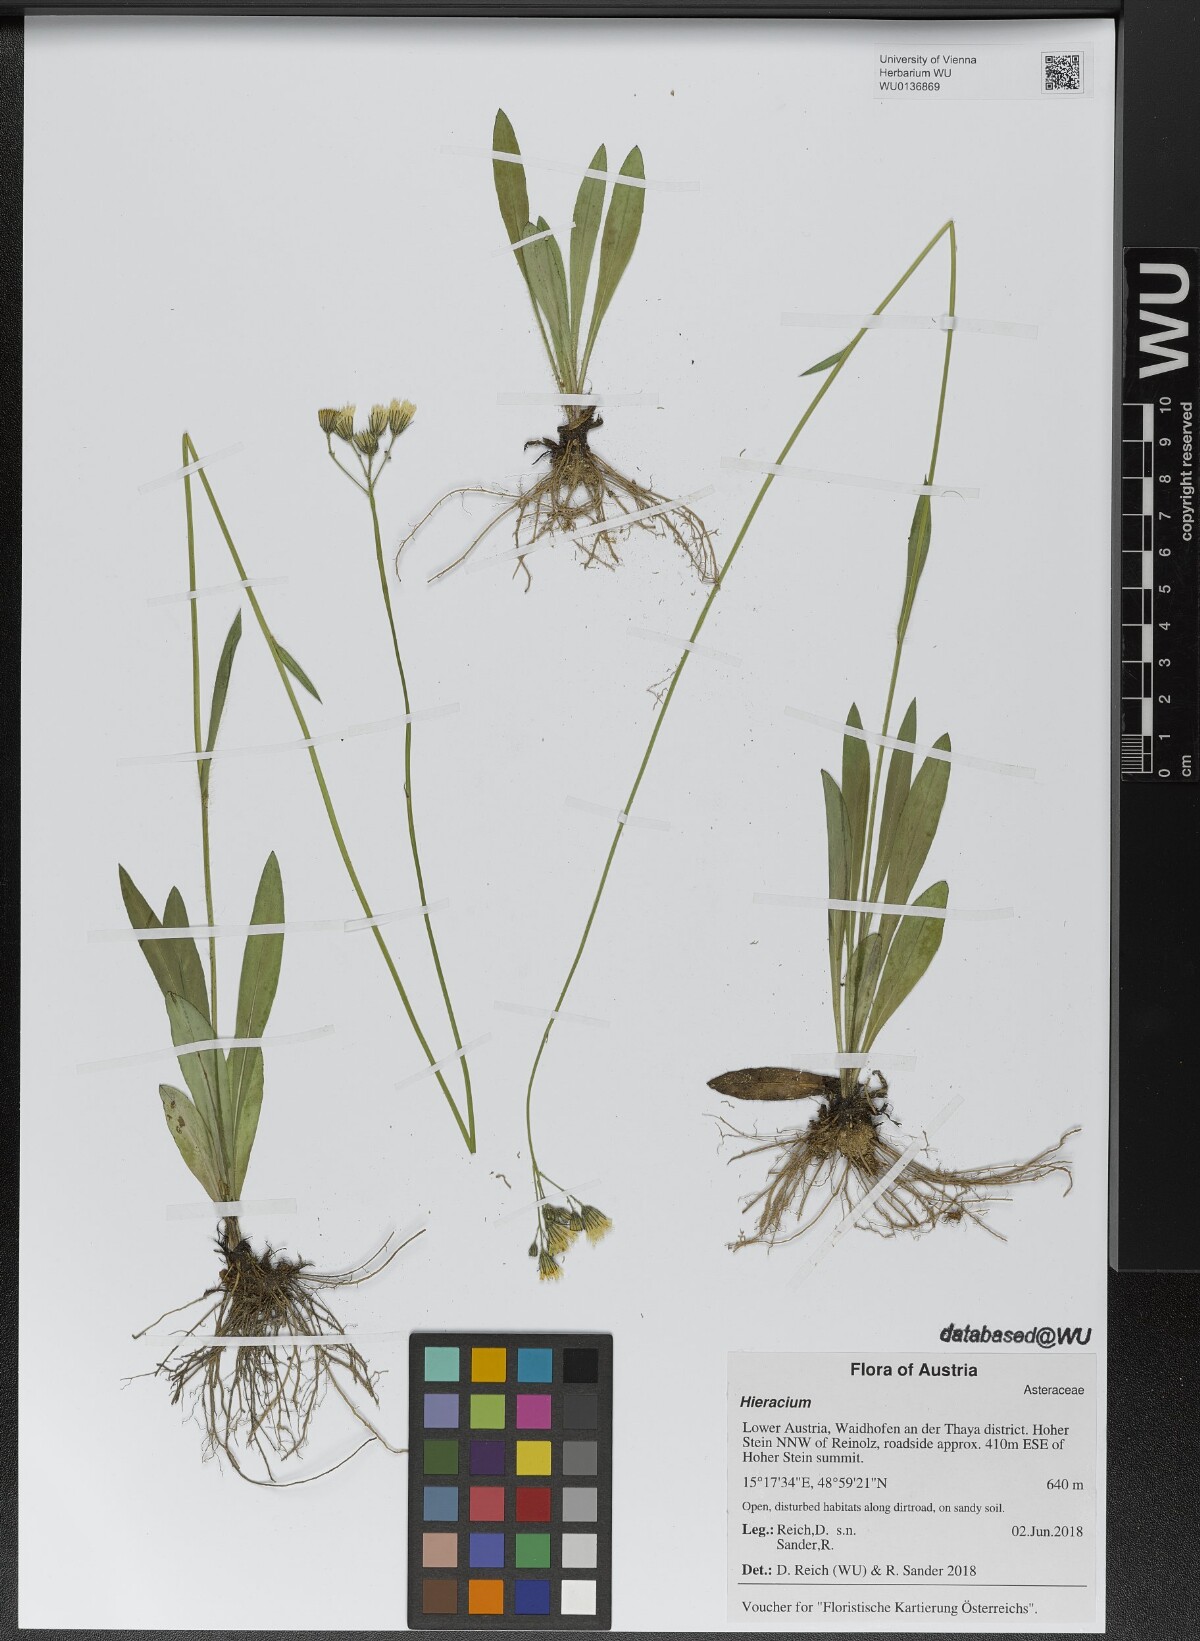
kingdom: Plantae
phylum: Tracheophyta
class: Magnoliopsida
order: Asterales
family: Asteraceae
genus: Hieracium
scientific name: Hieracium
